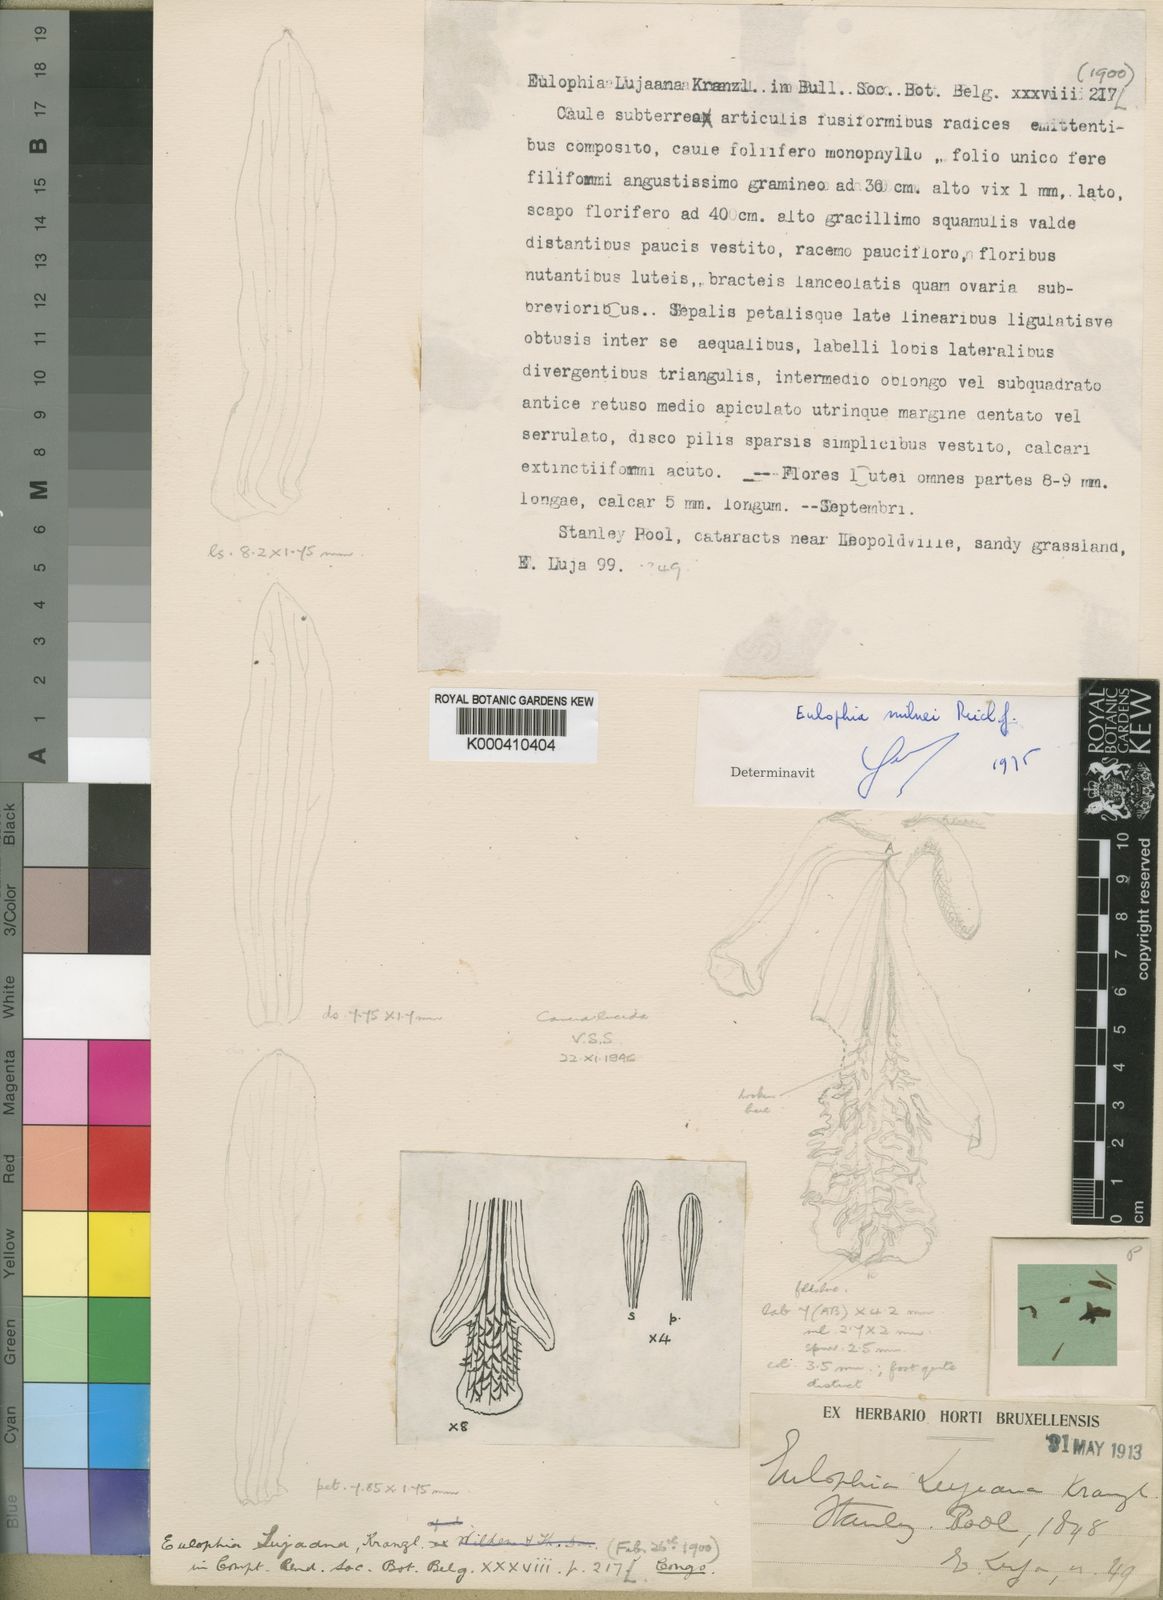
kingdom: Plantae
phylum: Tracheophyta
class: Liliopsida
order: Asparagales
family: Orchidaceae
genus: Eulophia
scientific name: Eulophia milnei
